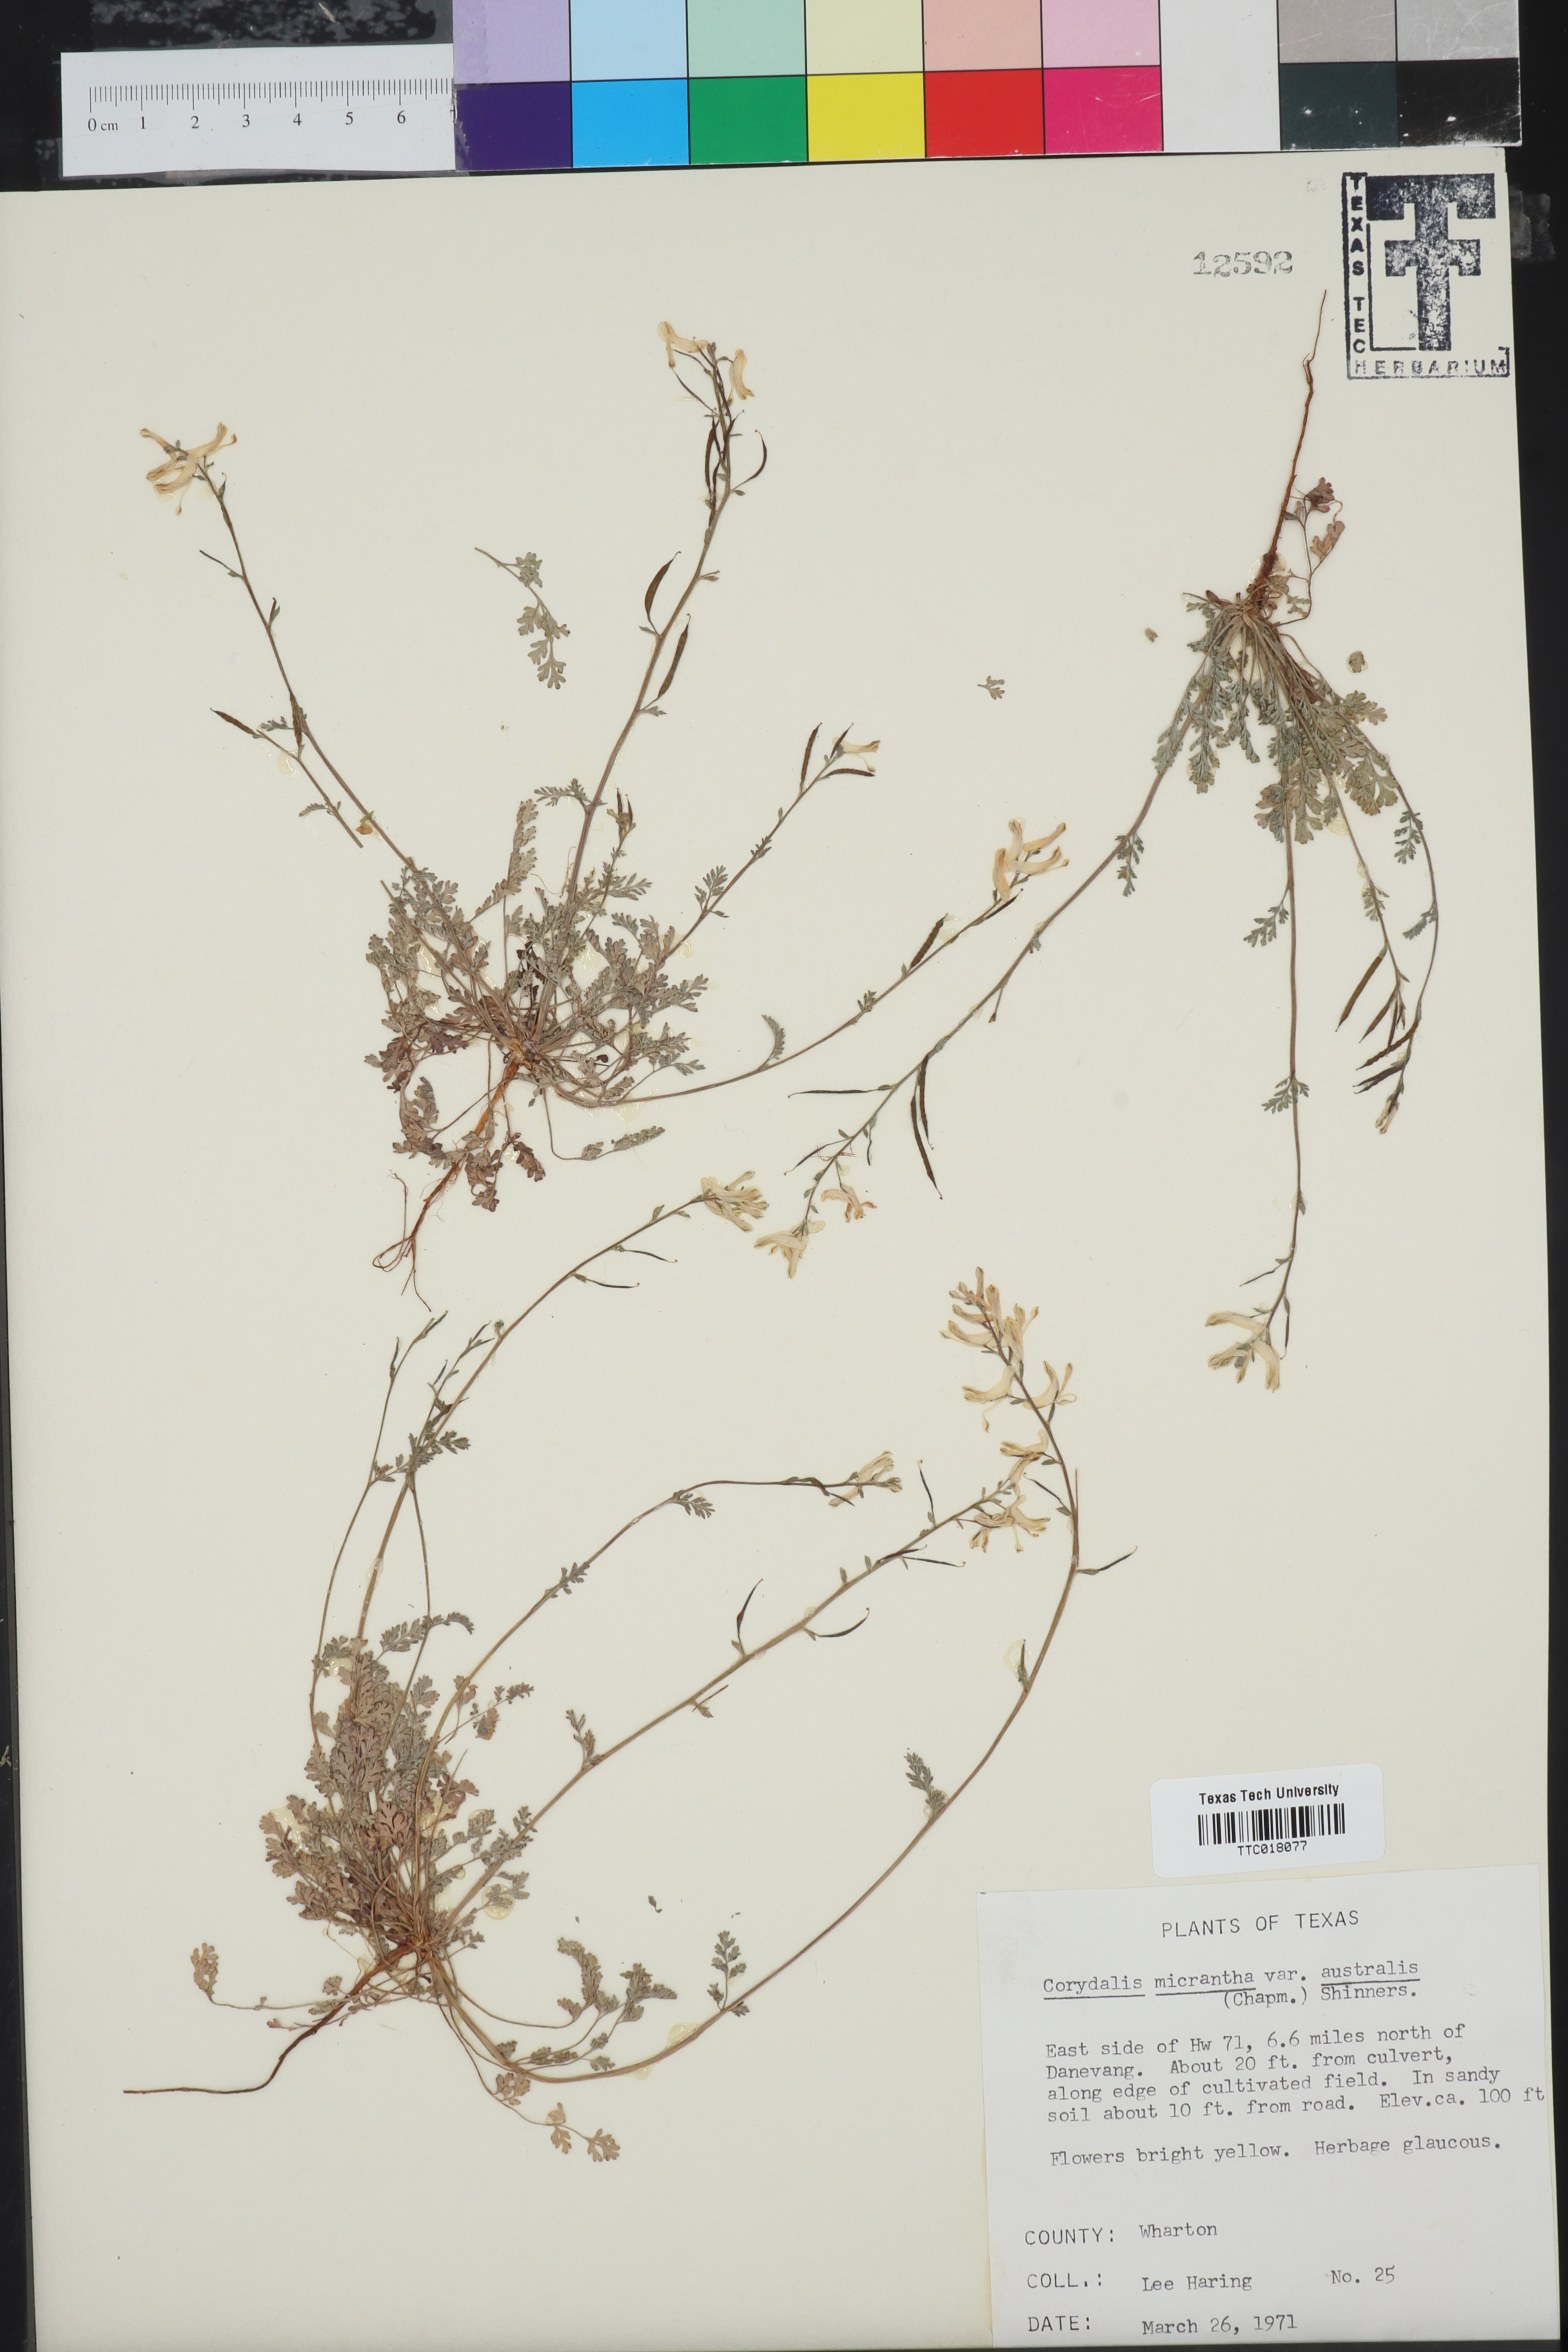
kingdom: Plantae
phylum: Tracheophyta
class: Magnoliopsida
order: Ranunculales
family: Papaveraceae
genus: Corydalis
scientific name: Corydalis micrantha
